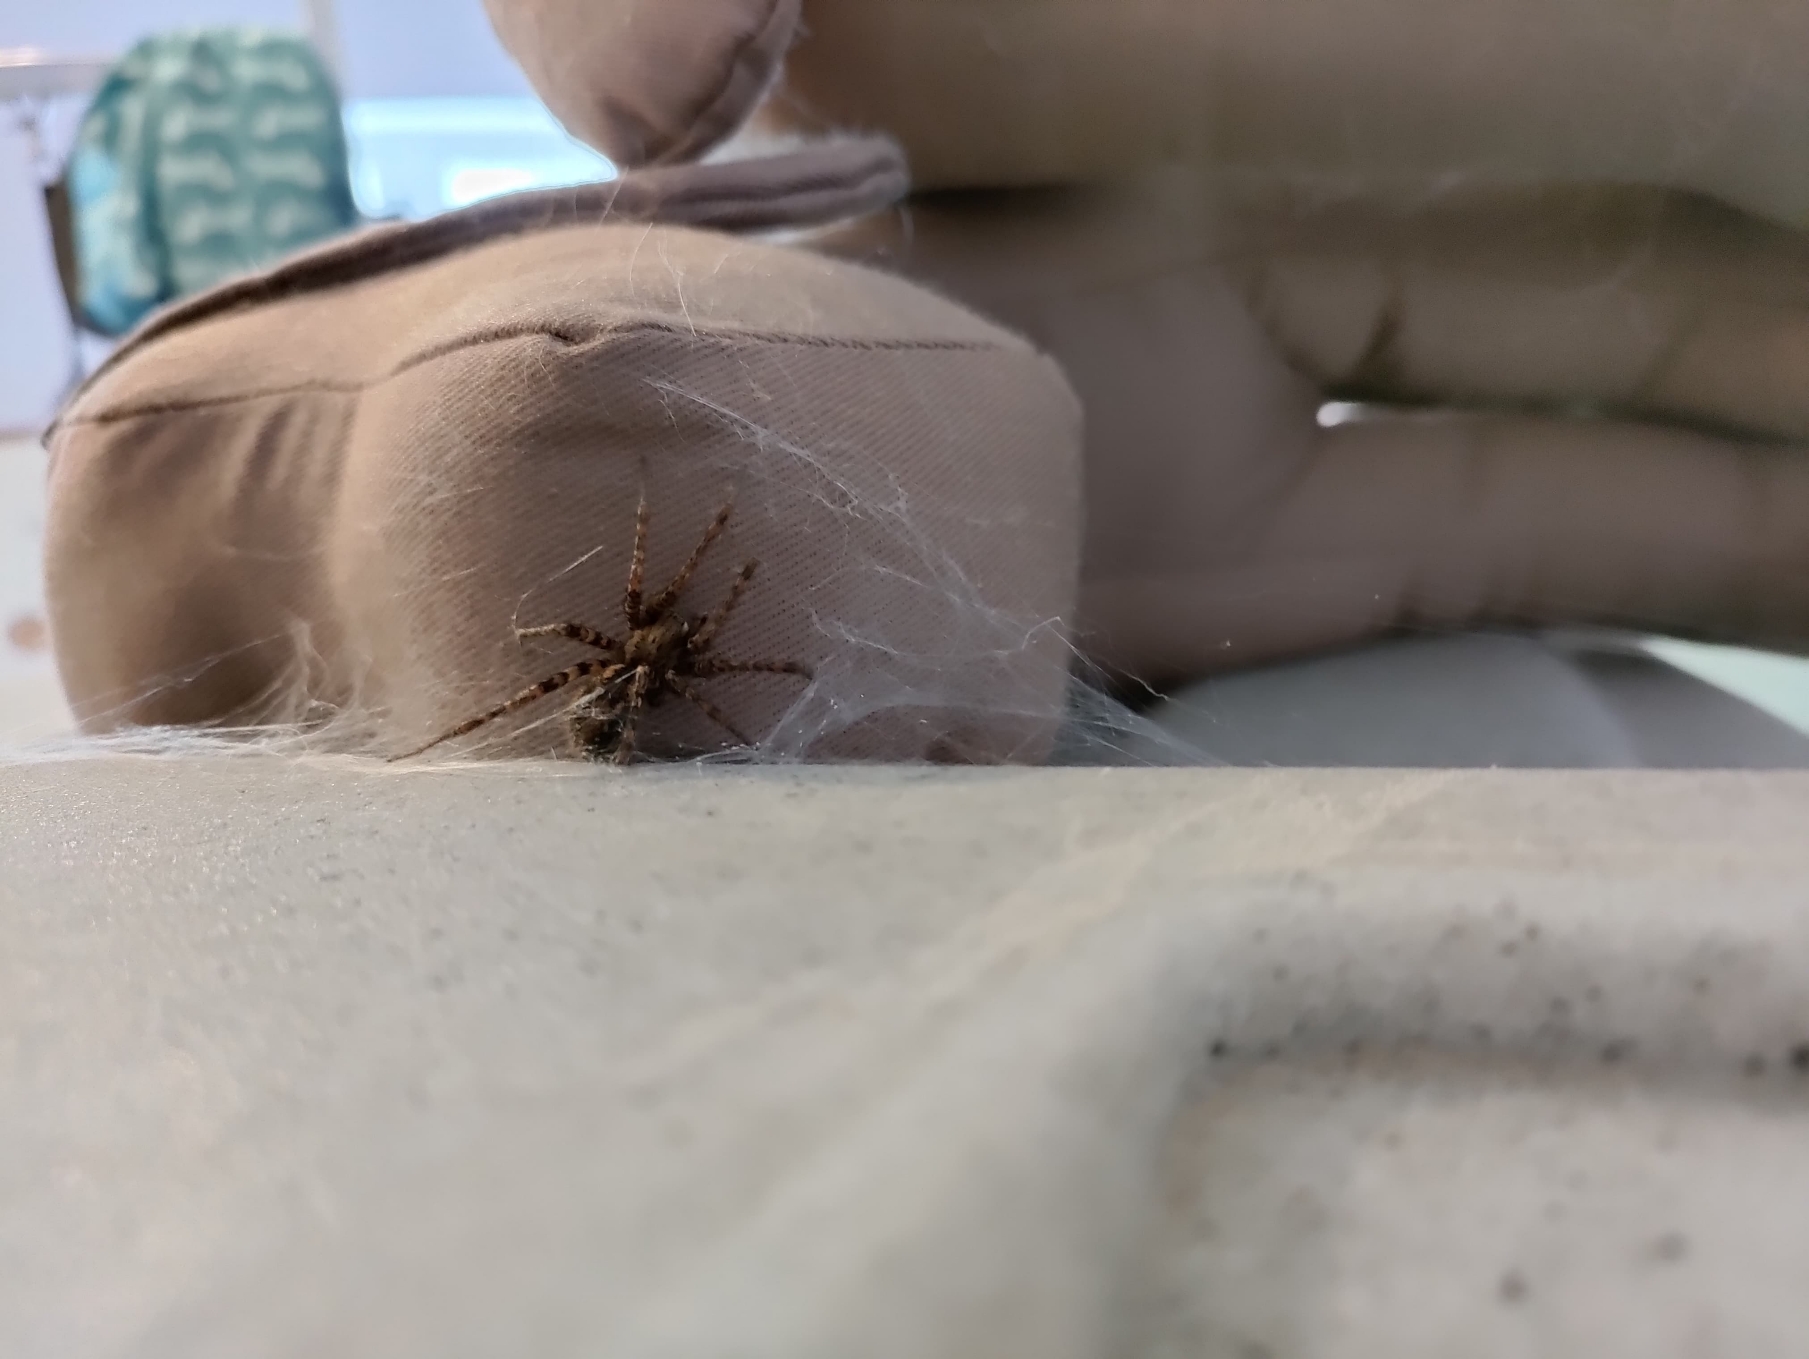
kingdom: Animalia
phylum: Arthropoda
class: Arachnida
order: Araneae
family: Agelenidae
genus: Tegenaria
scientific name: Tegenaria ferruginea
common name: Rustrød husedderkop
